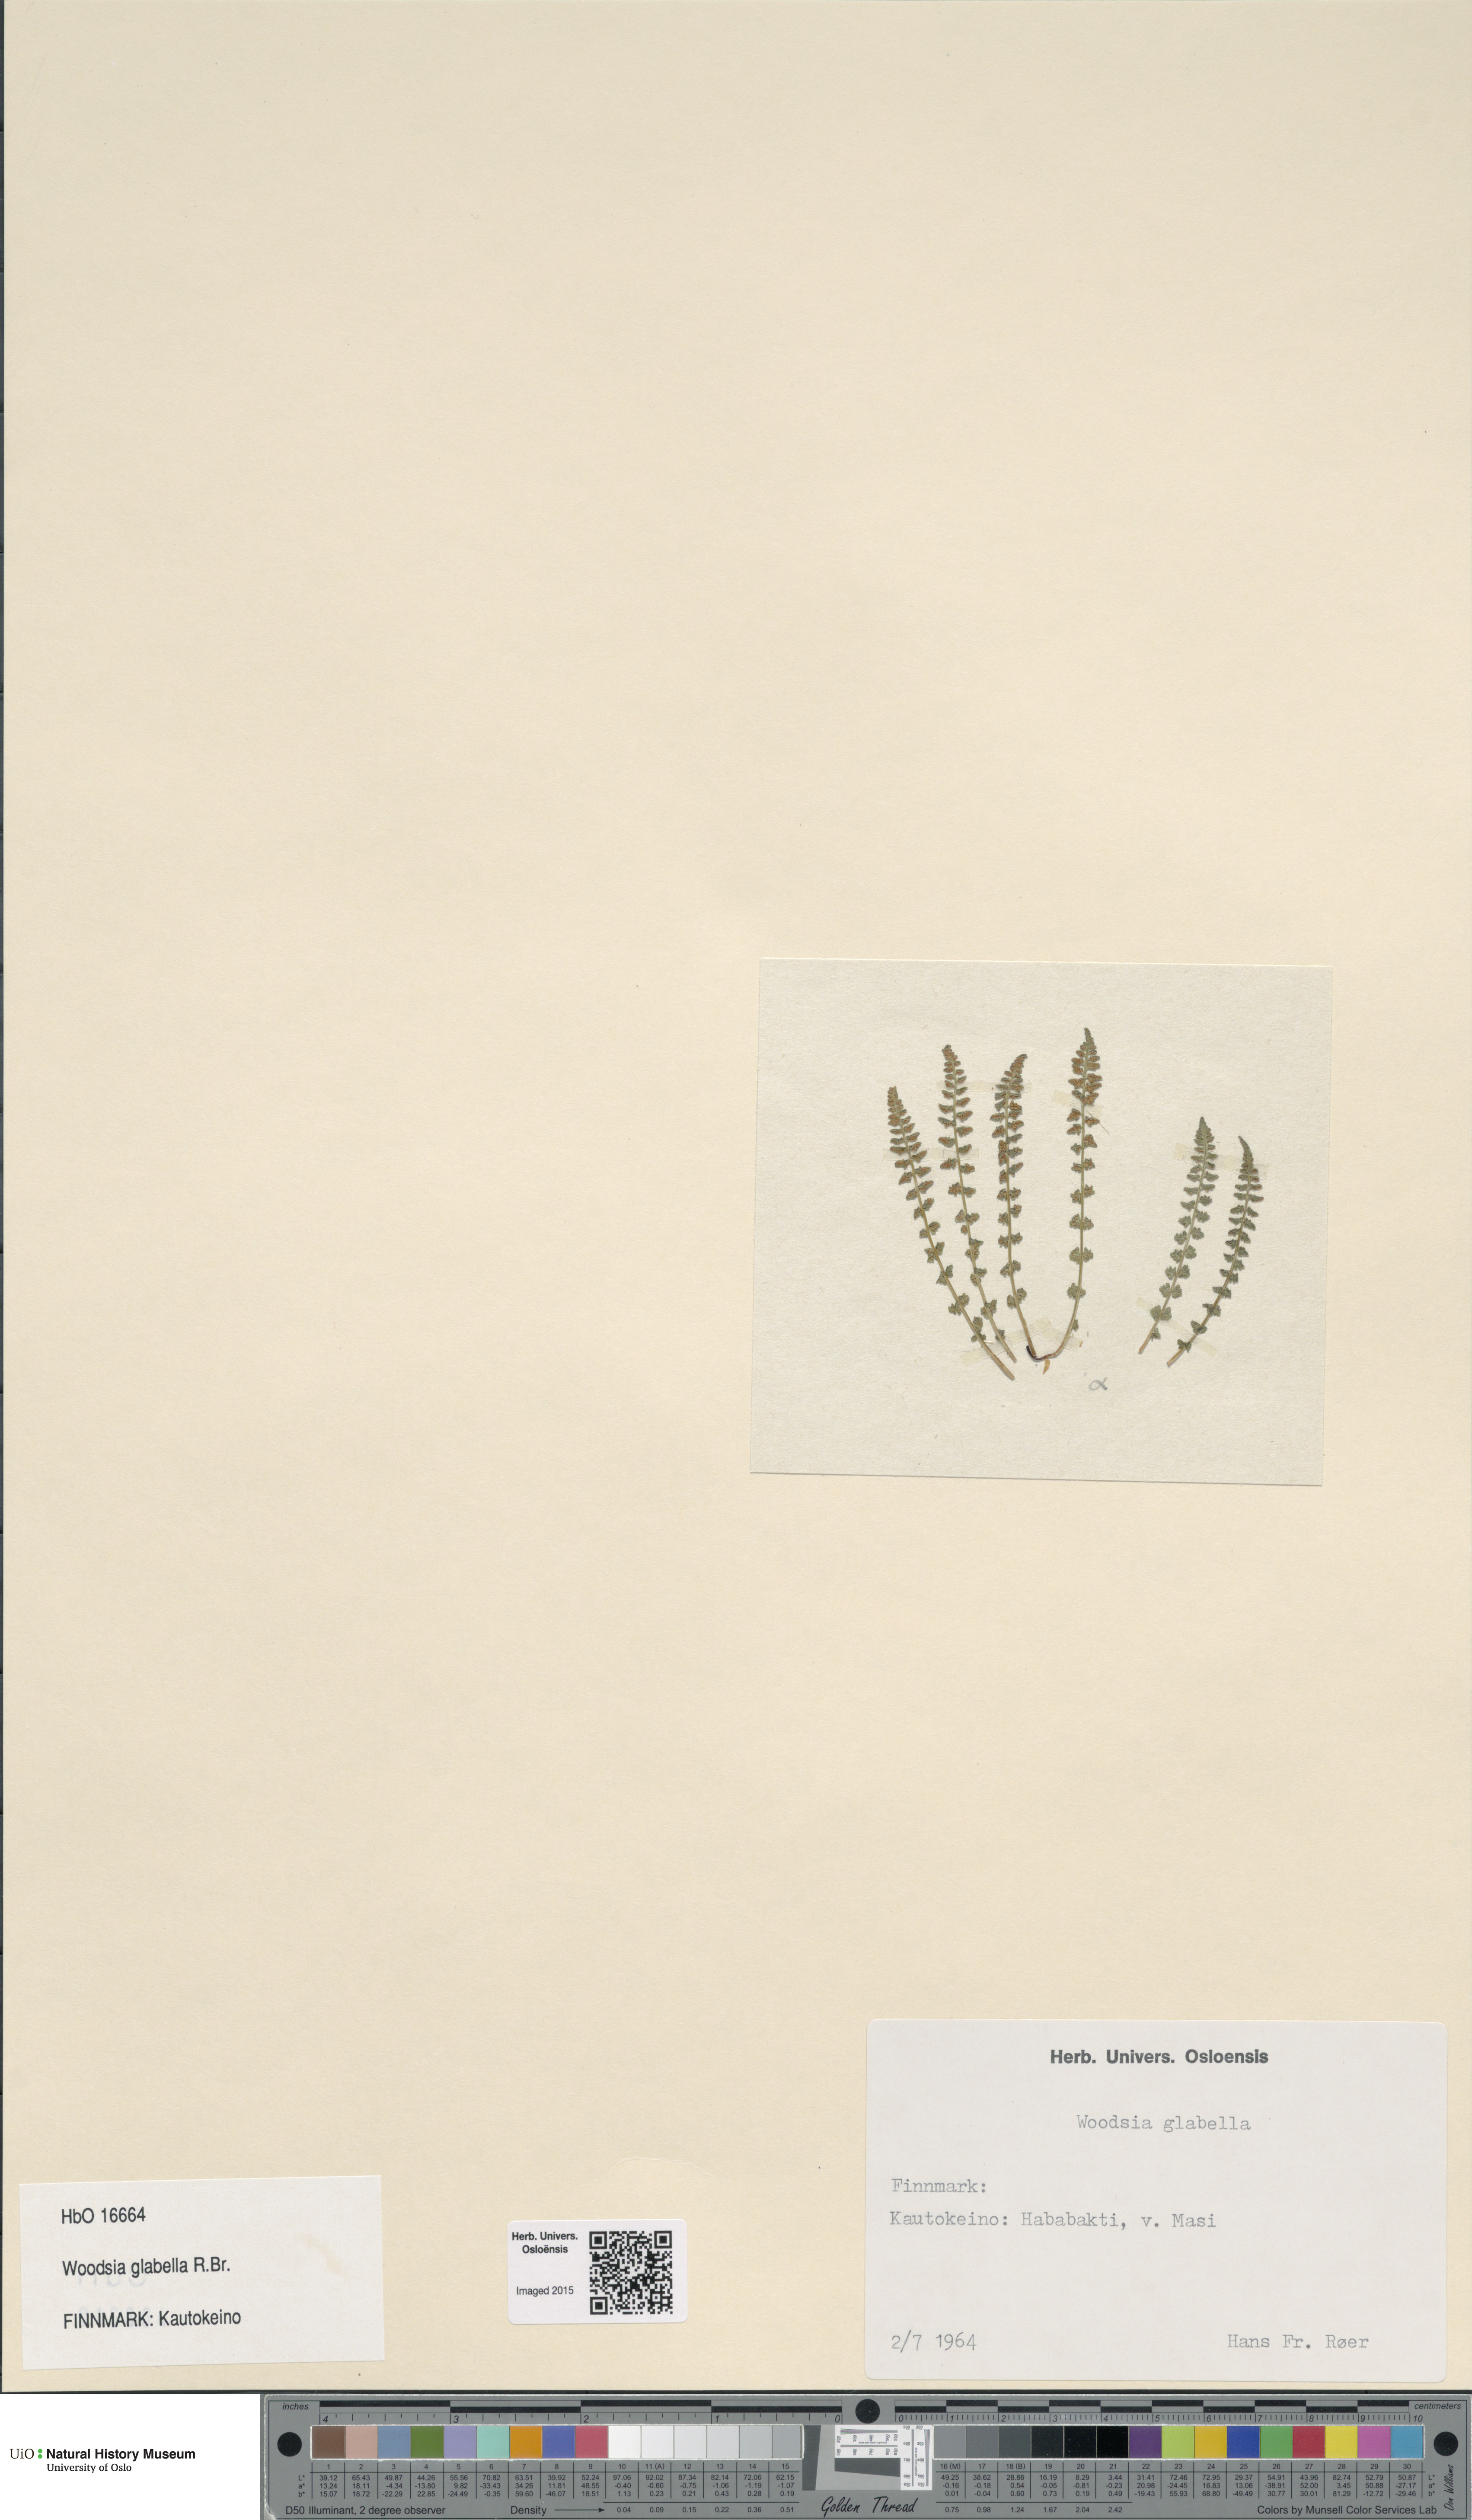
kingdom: Plantae
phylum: Tracheophyta
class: Polypodiopsida
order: Polypodiales
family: Woodsiaceae
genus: Woodsia
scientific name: Woodsia glabella
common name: Smooth woodsia
